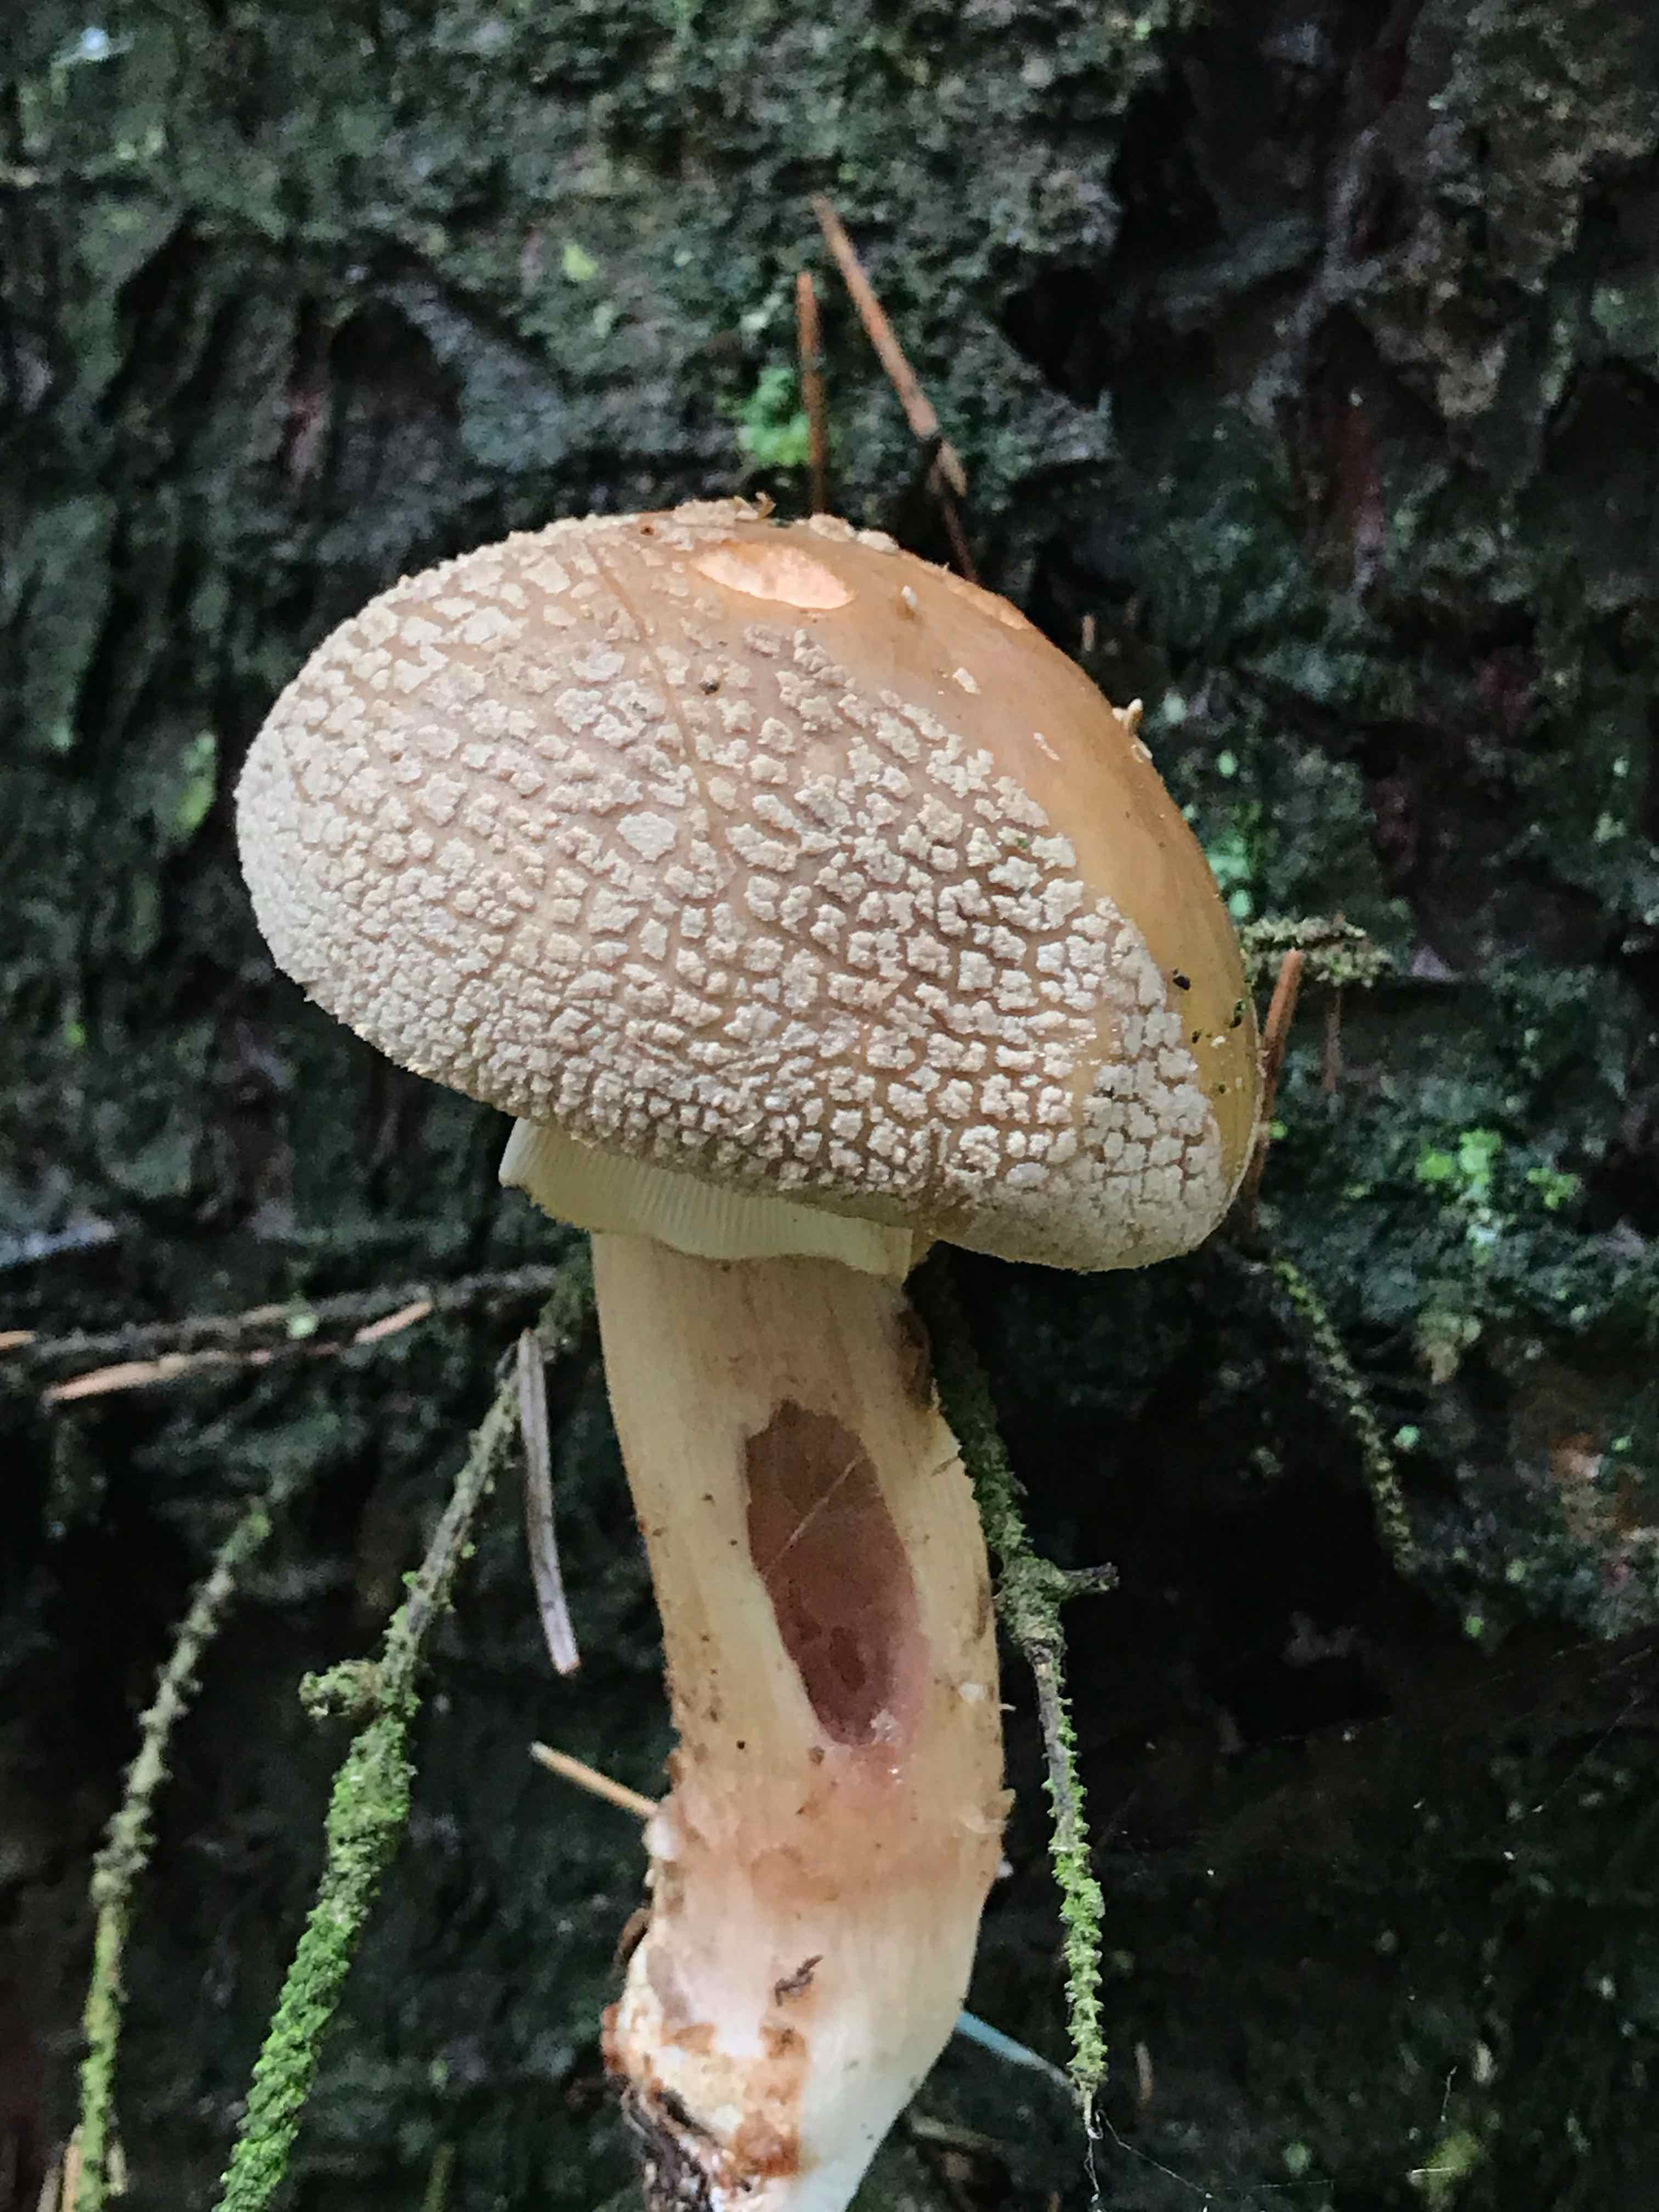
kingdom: Fungi
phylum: Basidiomycota
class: Agaricomycetes
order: Agaricales
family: Amanitaceae
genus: Amanita
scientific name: Amanita rubescens
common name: rødmende fluesvamp
